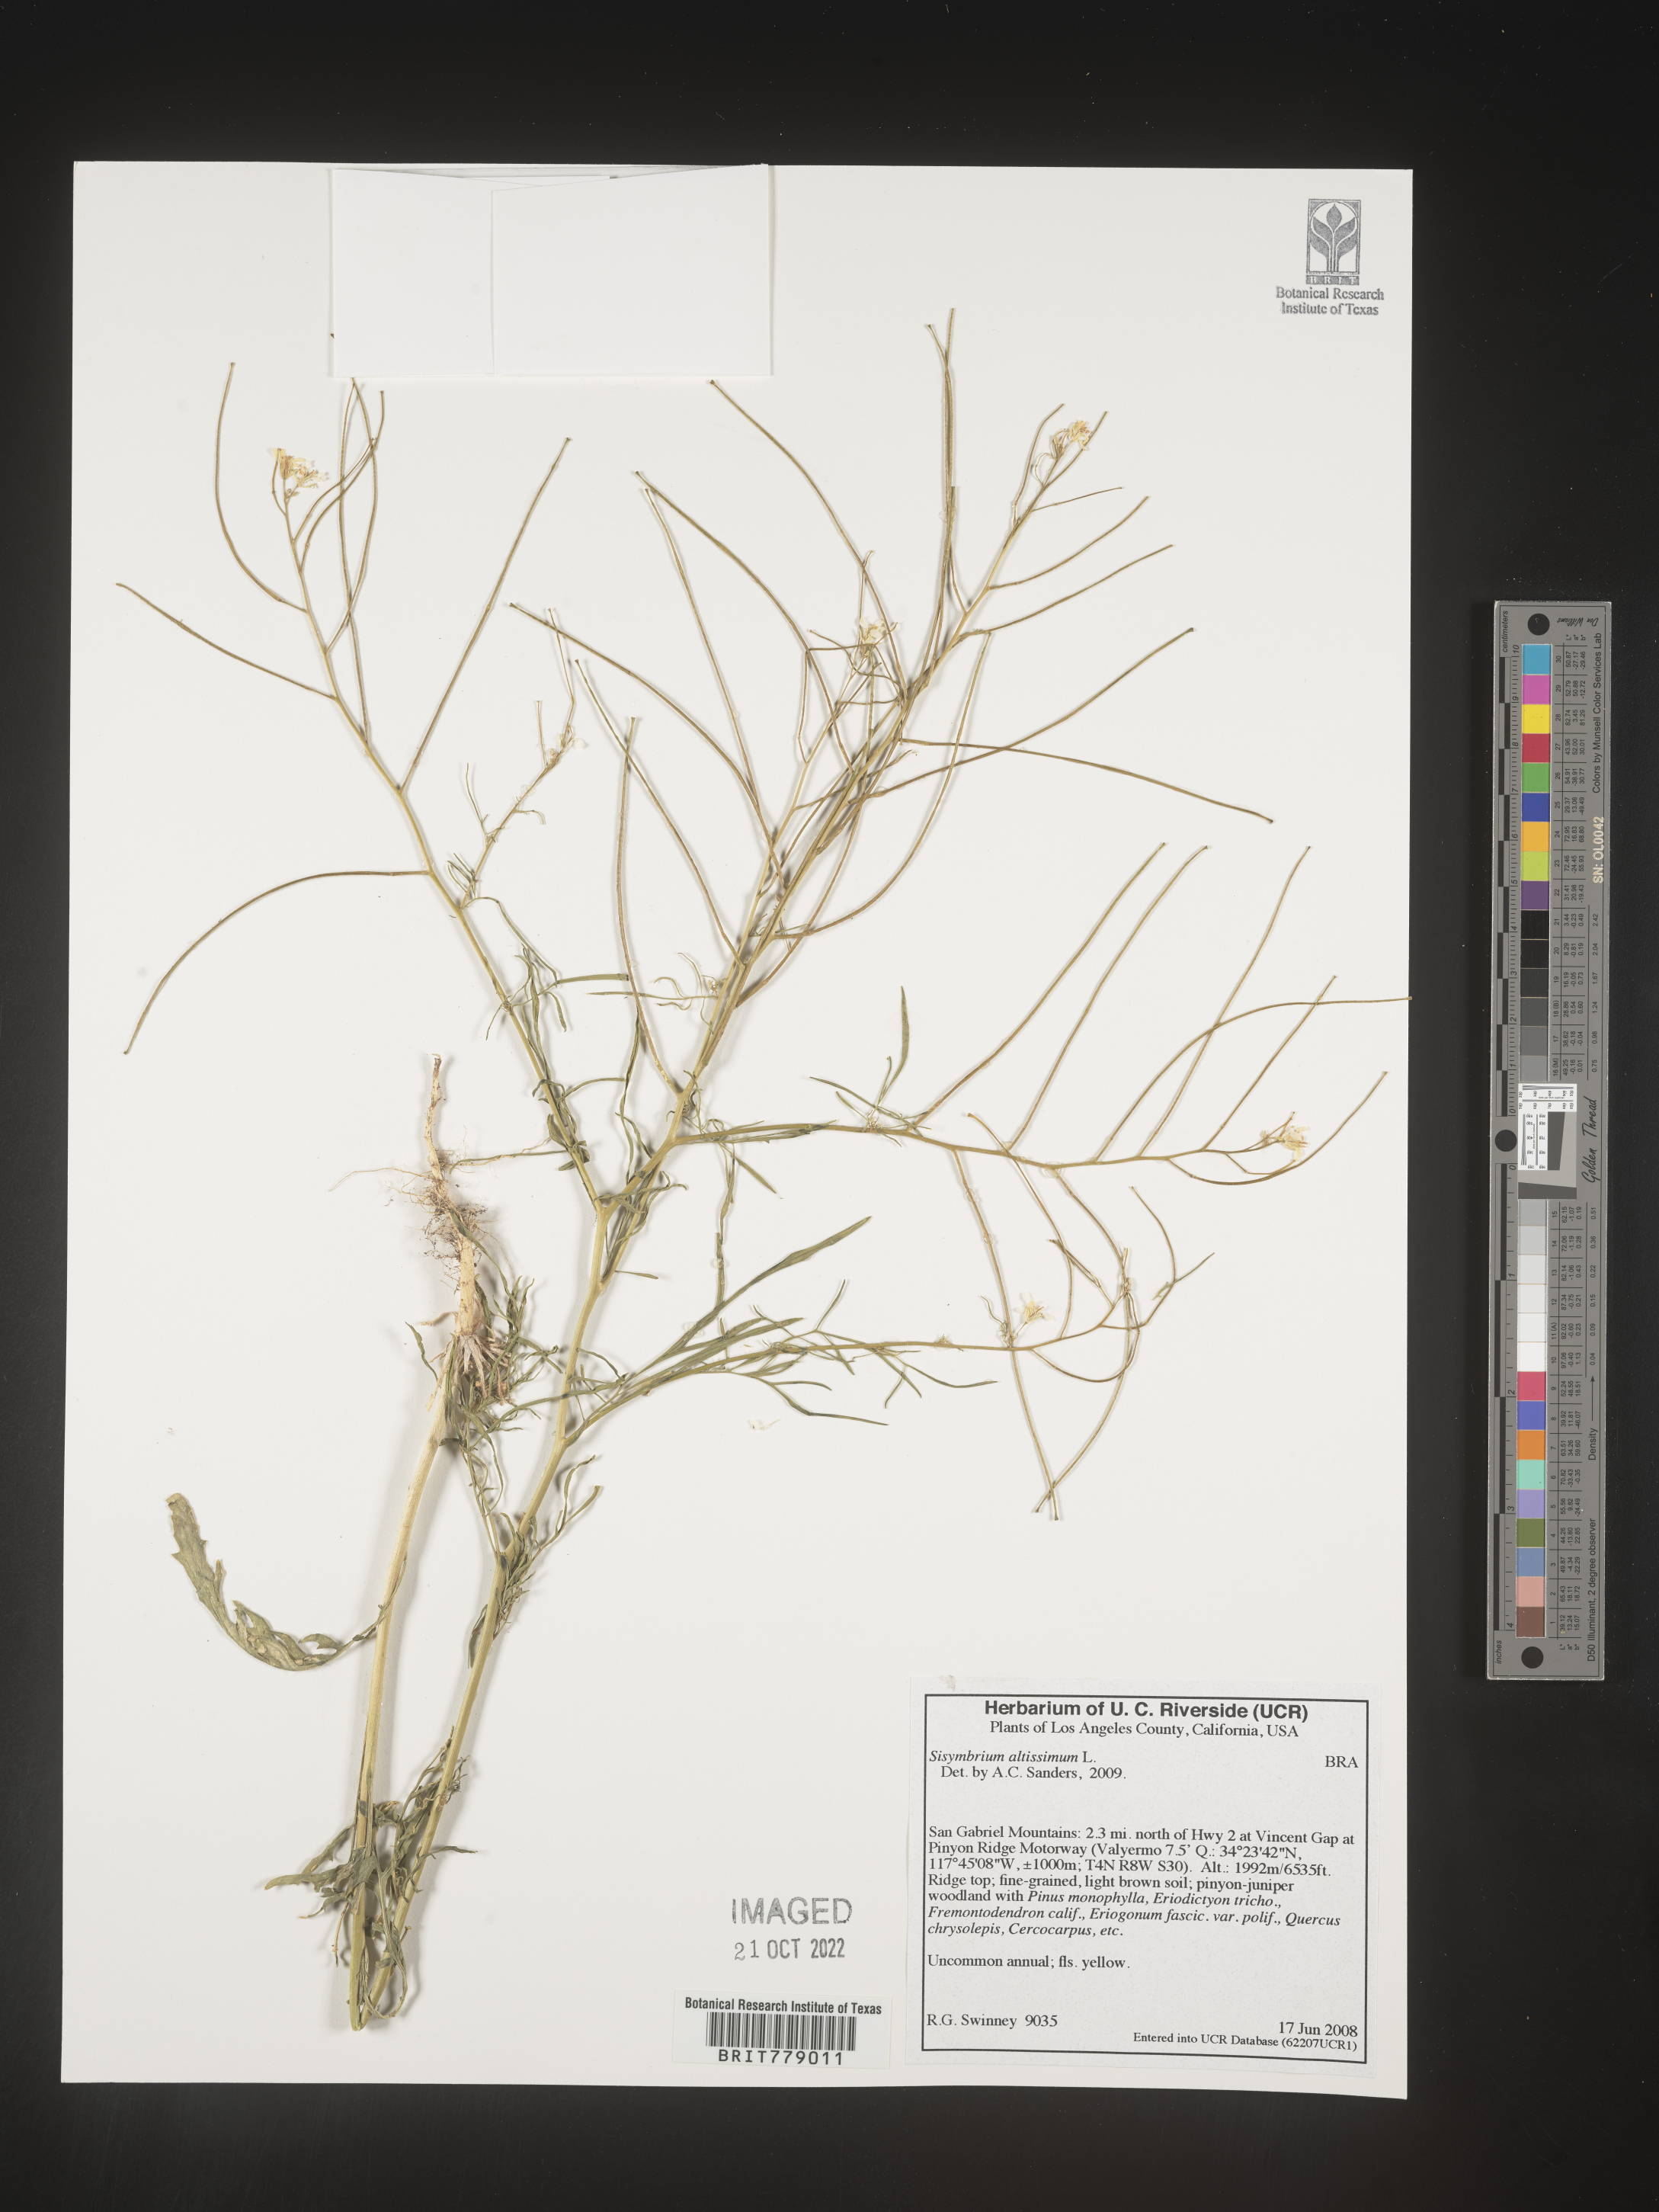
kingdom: Plantae
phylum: Tracheophyta
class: Magnoliopsida
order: Brassicales
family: Brassicaceae
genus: Sisymbrium
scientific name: Sisymbrium altissimum
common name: Tall rocket
